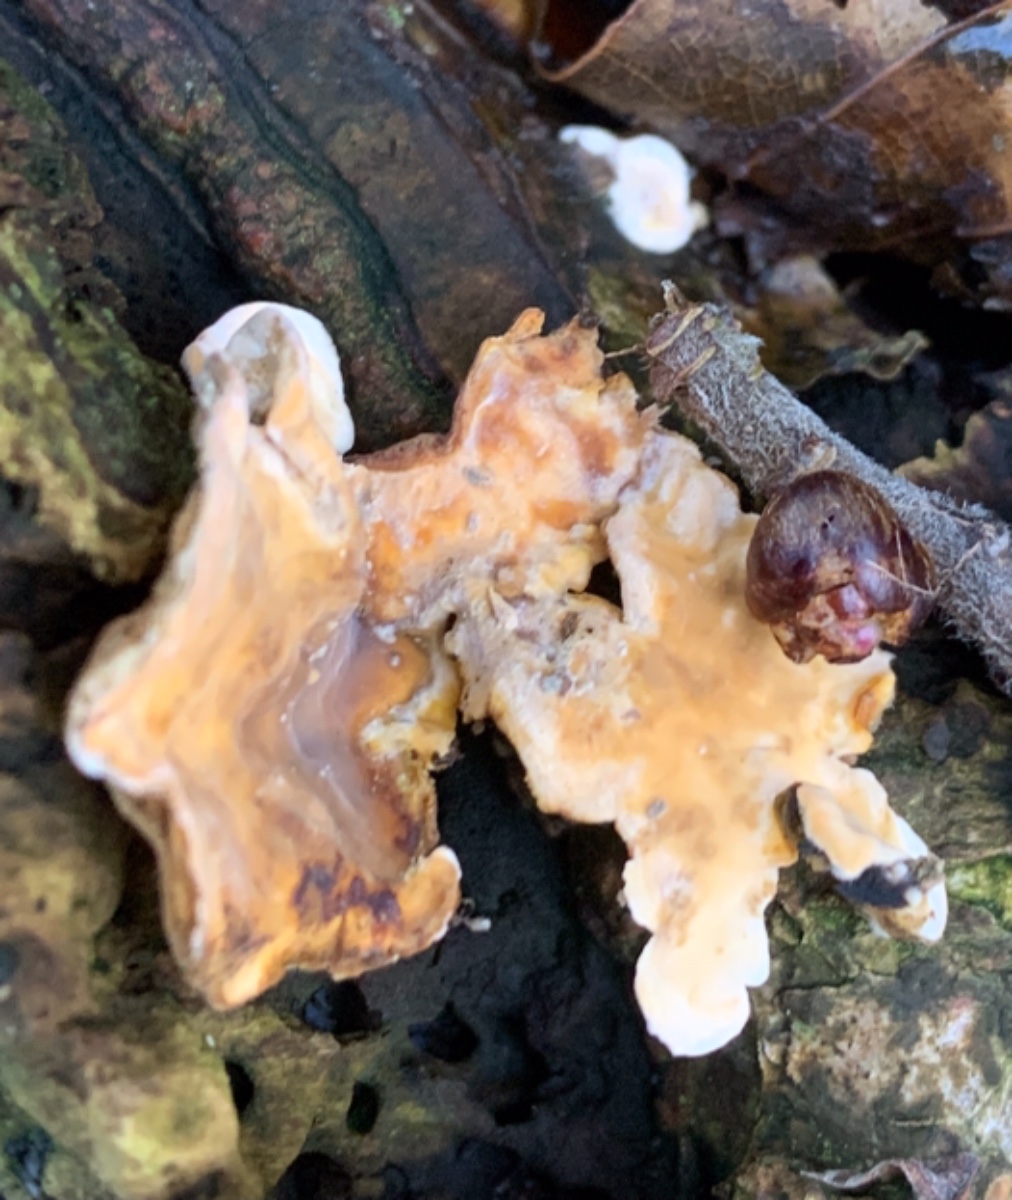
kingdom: Fungi
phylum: Basidiomycota
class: Agaricomycetes
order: Russulales
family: Stereaceae
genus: Stereum
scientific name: Stereum hirsutum
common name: håret lædersvamp
